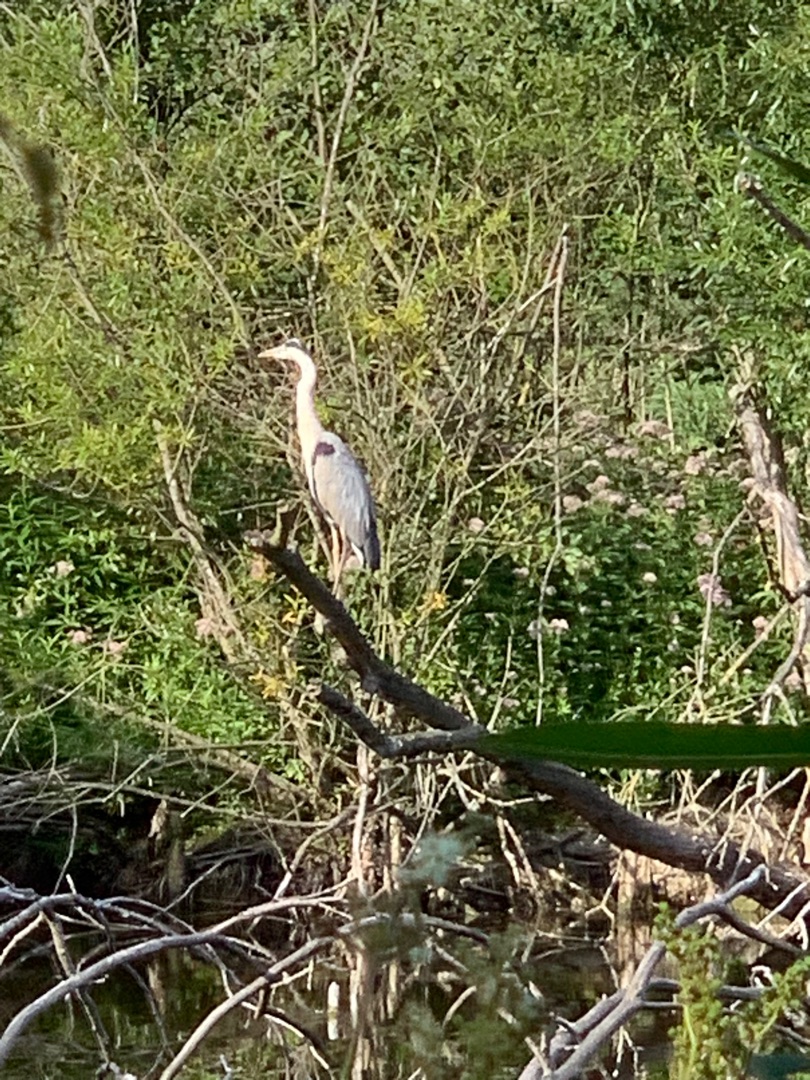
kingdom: Animalia
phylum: Chordata
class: Aves
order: Pelecaniformes
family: Ardeidae
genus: Ardea
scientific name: Ardea cinerea
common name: Fiskehejre
